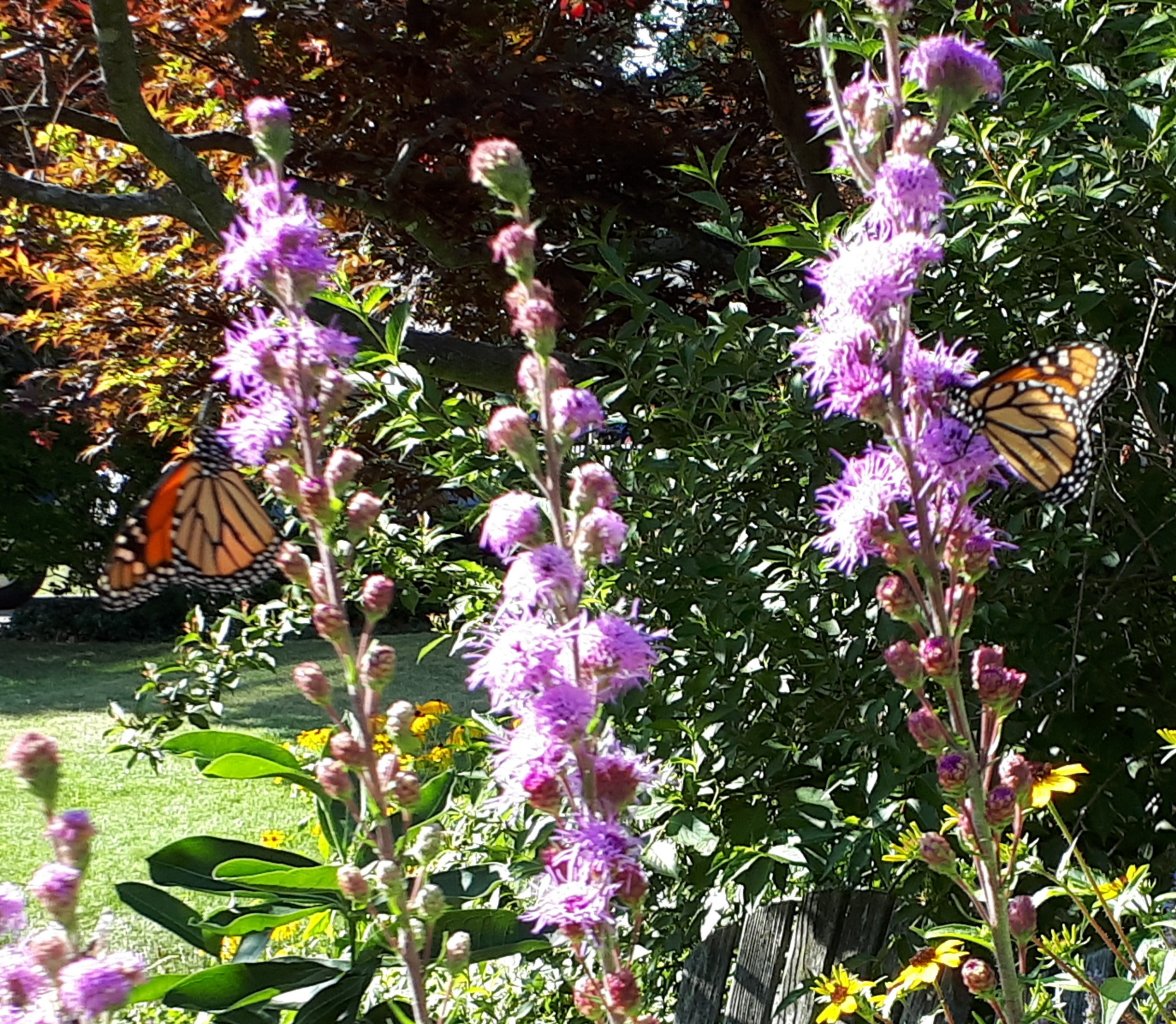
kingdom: Animalia
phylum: Arthropoda
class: Insecta
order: Lepidoptera
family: Nymphalidae
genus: Danaus
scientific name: Danaus plexippus
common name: Monarch
